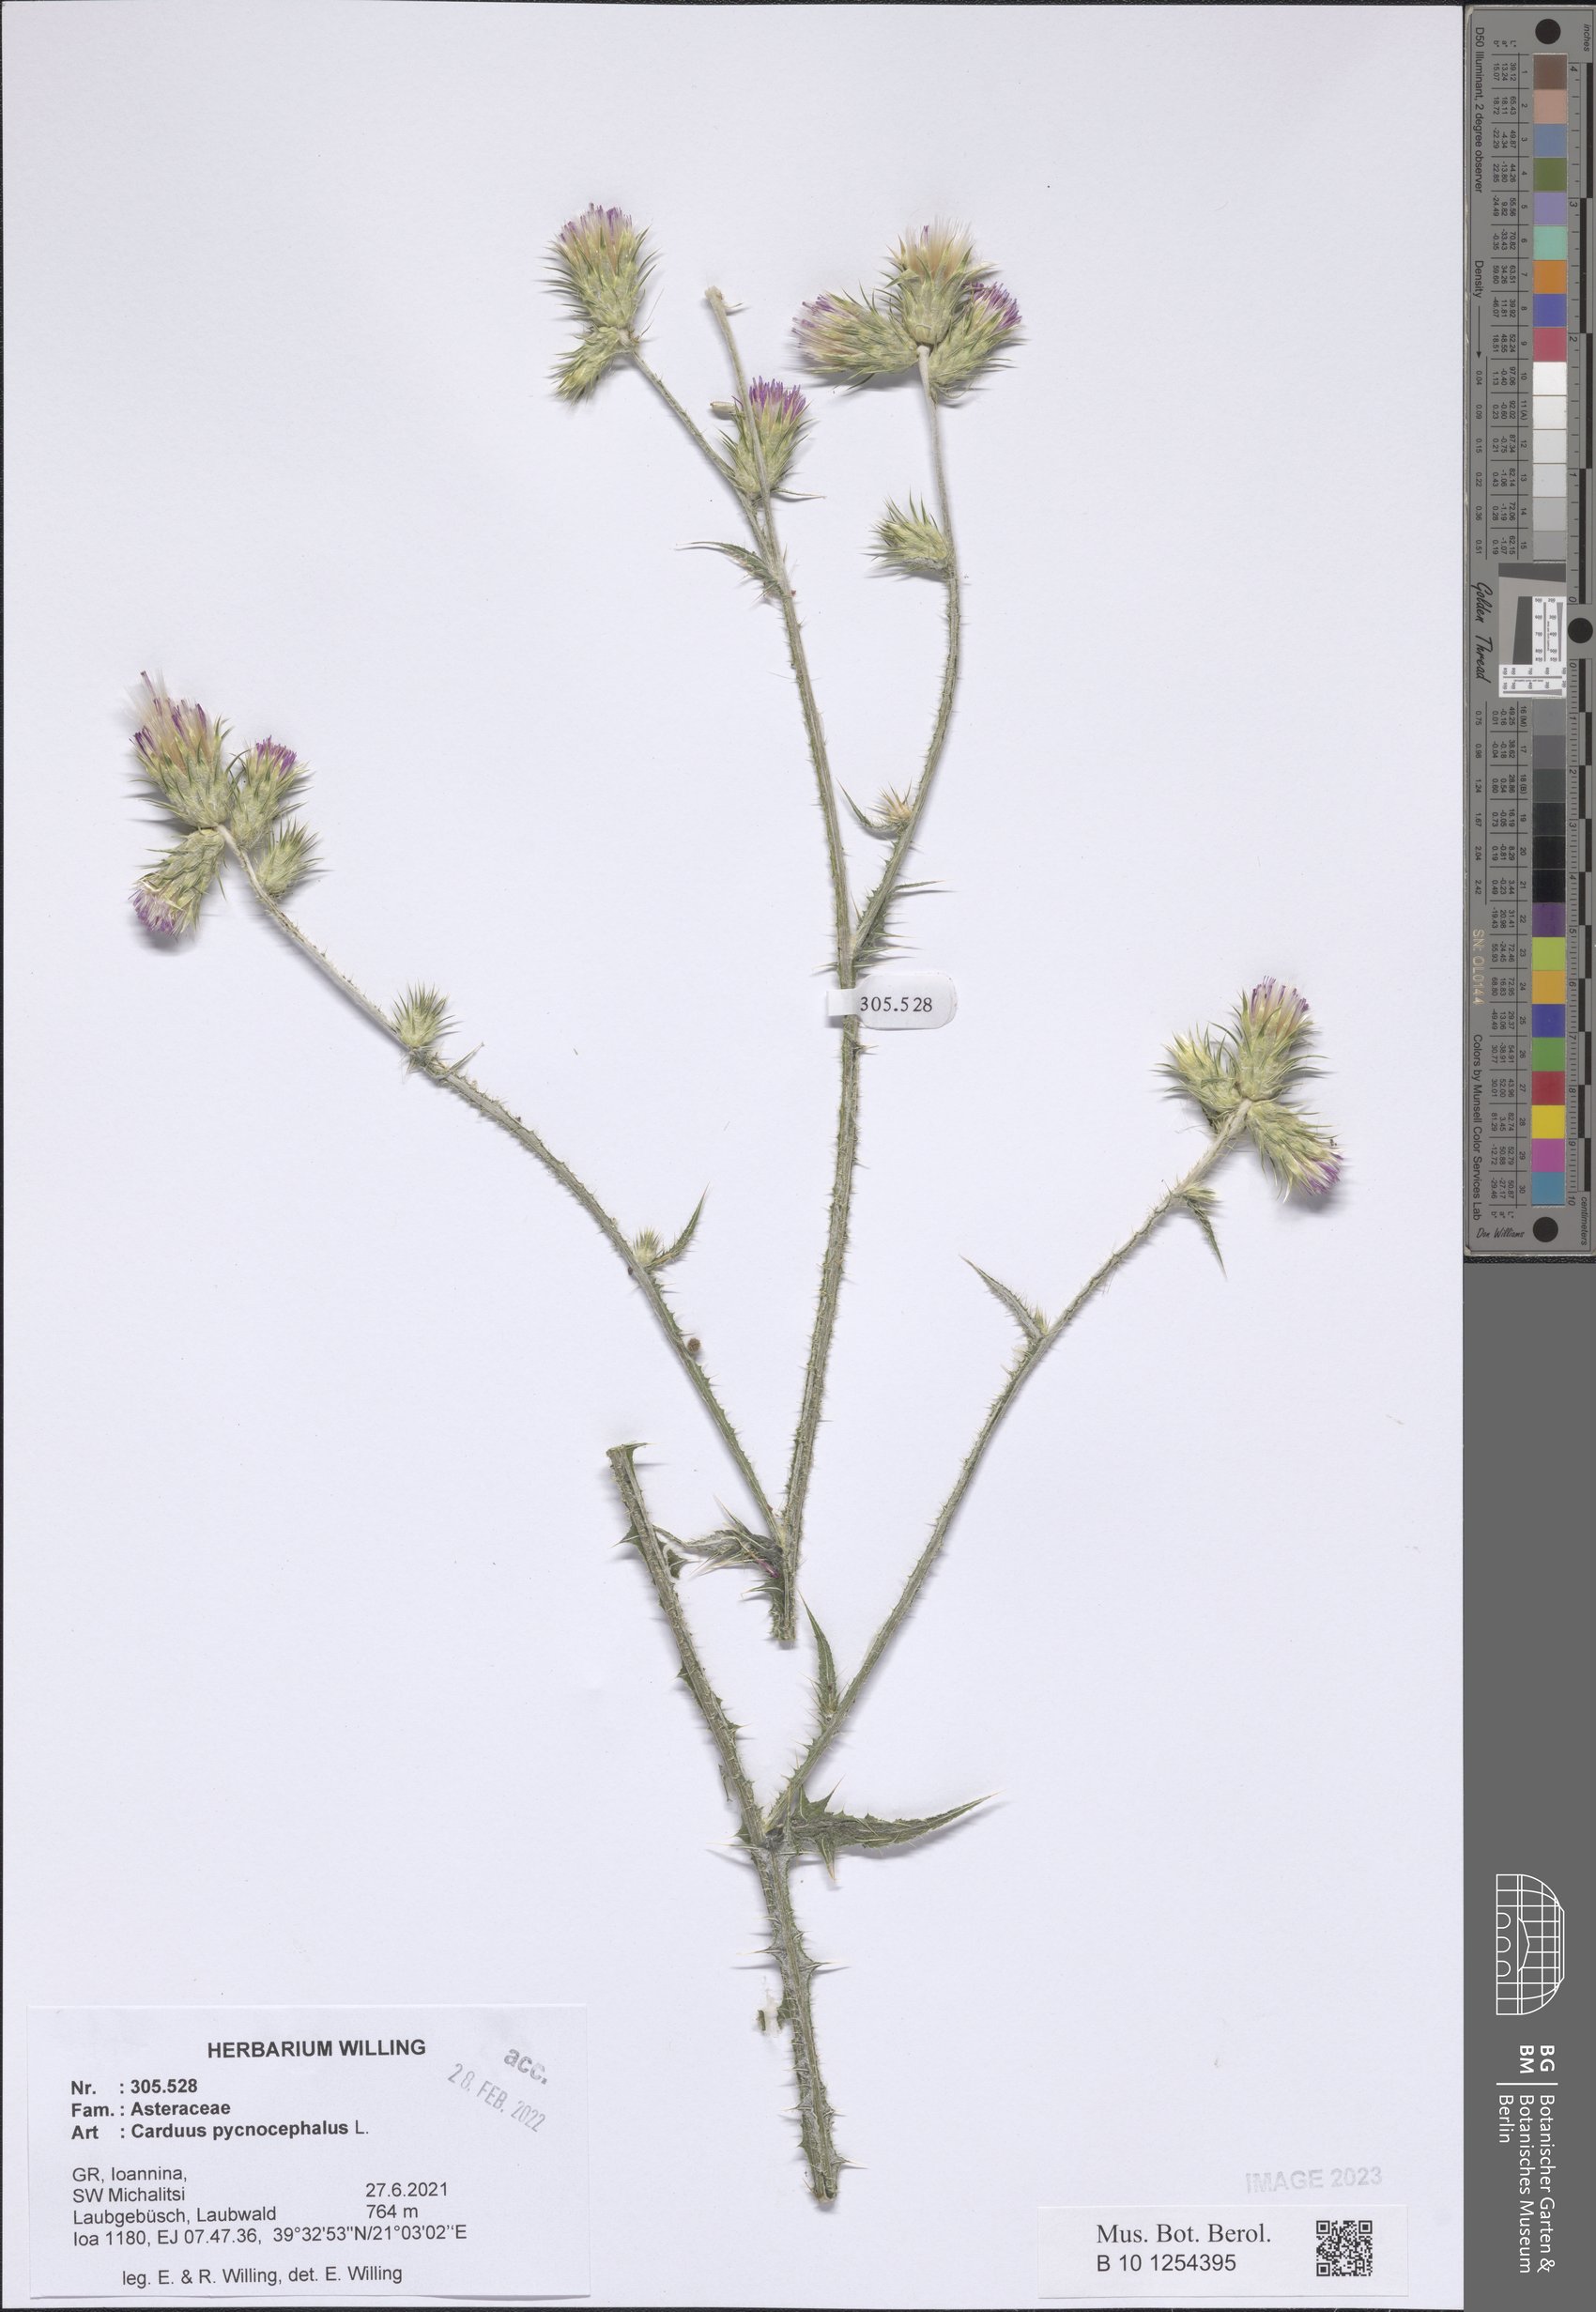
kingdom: Plantae
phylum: Tracheophyta
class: Magnoliopsida
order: Asterales
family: Asteraceae
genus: Carduus
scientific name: Carduus pycnocephalus
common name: Plymouth thistle
